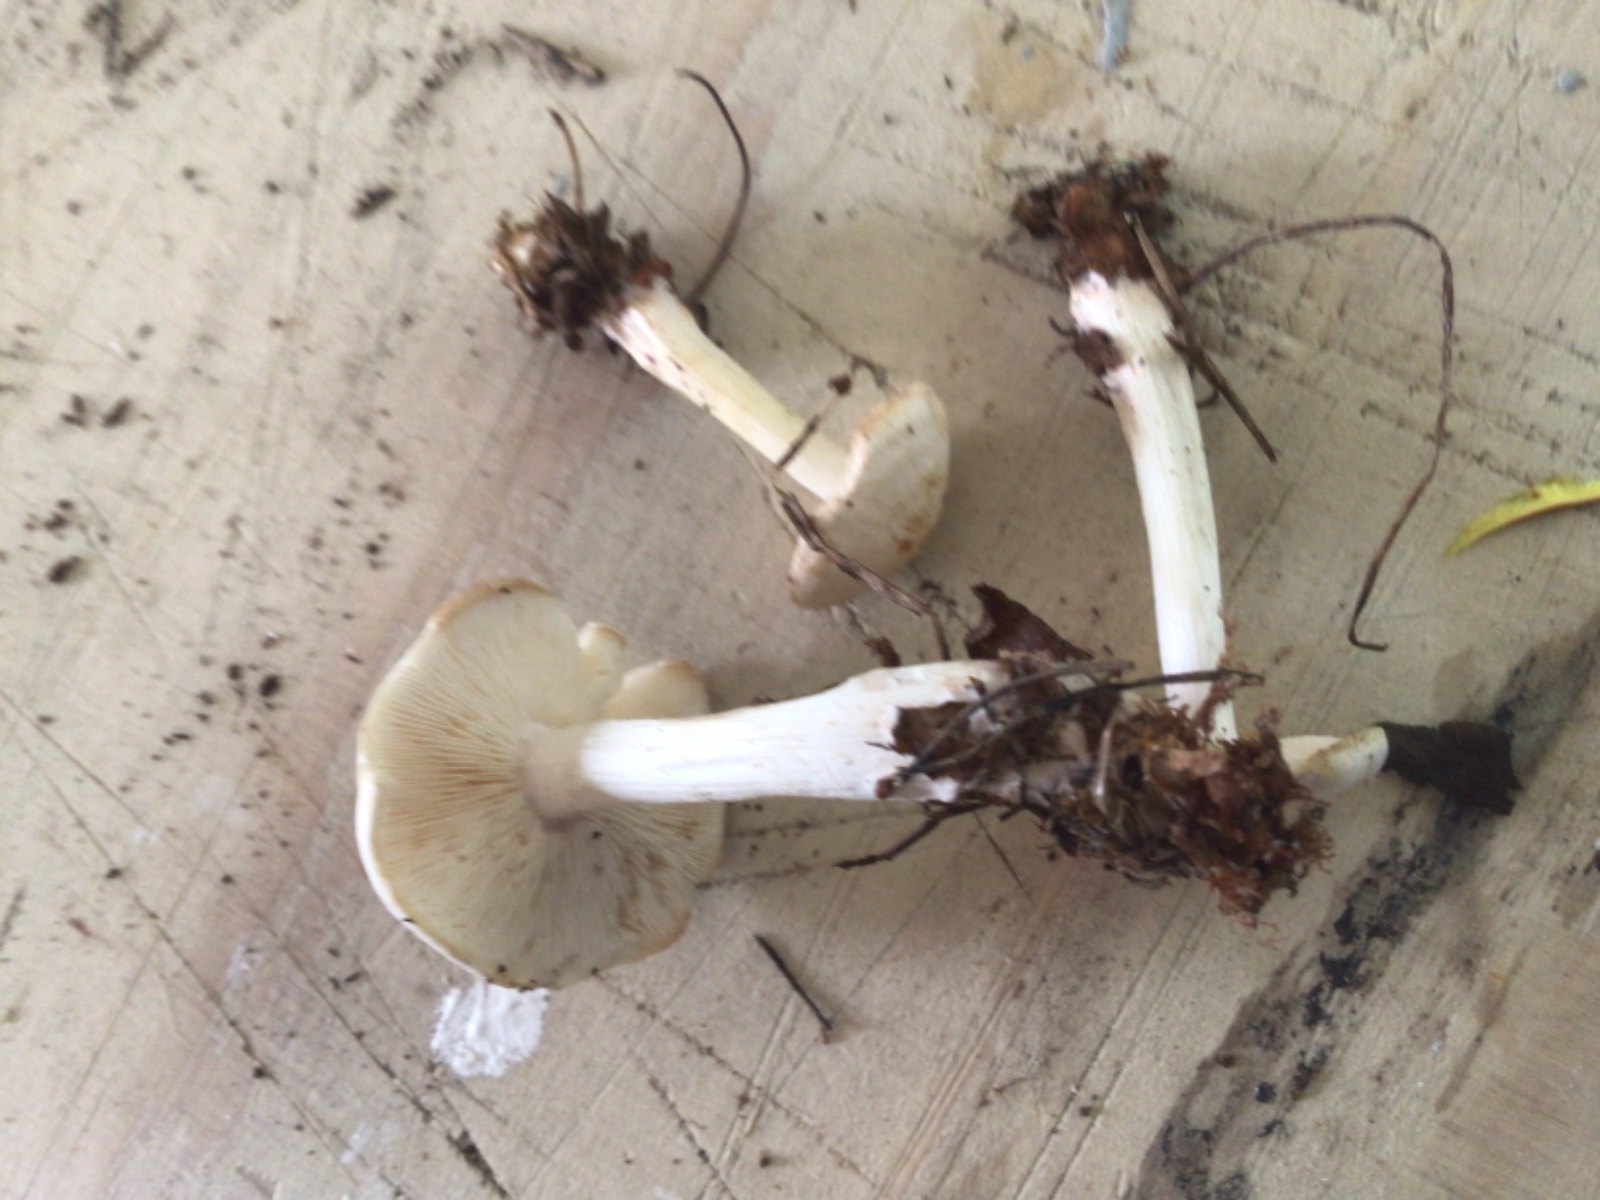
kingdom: Fungi
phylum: Basidiomycota
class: Agaricomycetes
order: Agaricales
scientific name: Agaricales
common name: champignonordenen
